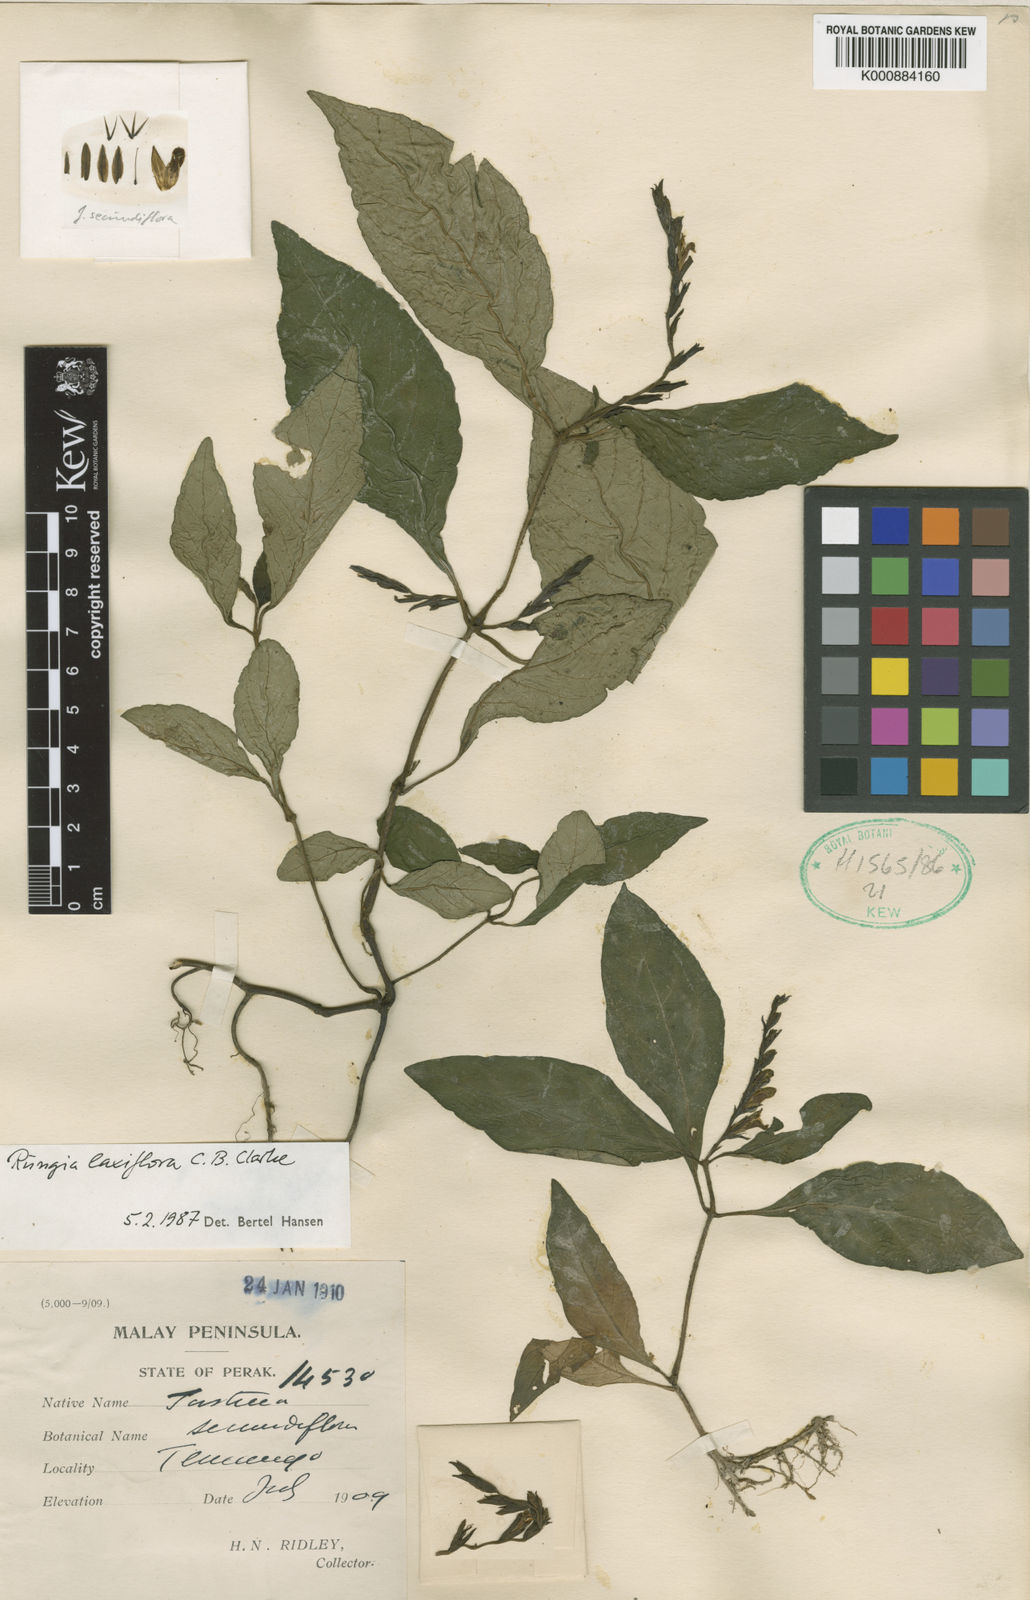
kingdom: Plantae
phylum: Tracheophyta
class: Magnoliopsida
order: Lamiales
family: Acanthaceae
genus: Haplanthus
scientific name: Haplanthus laxiflorus
